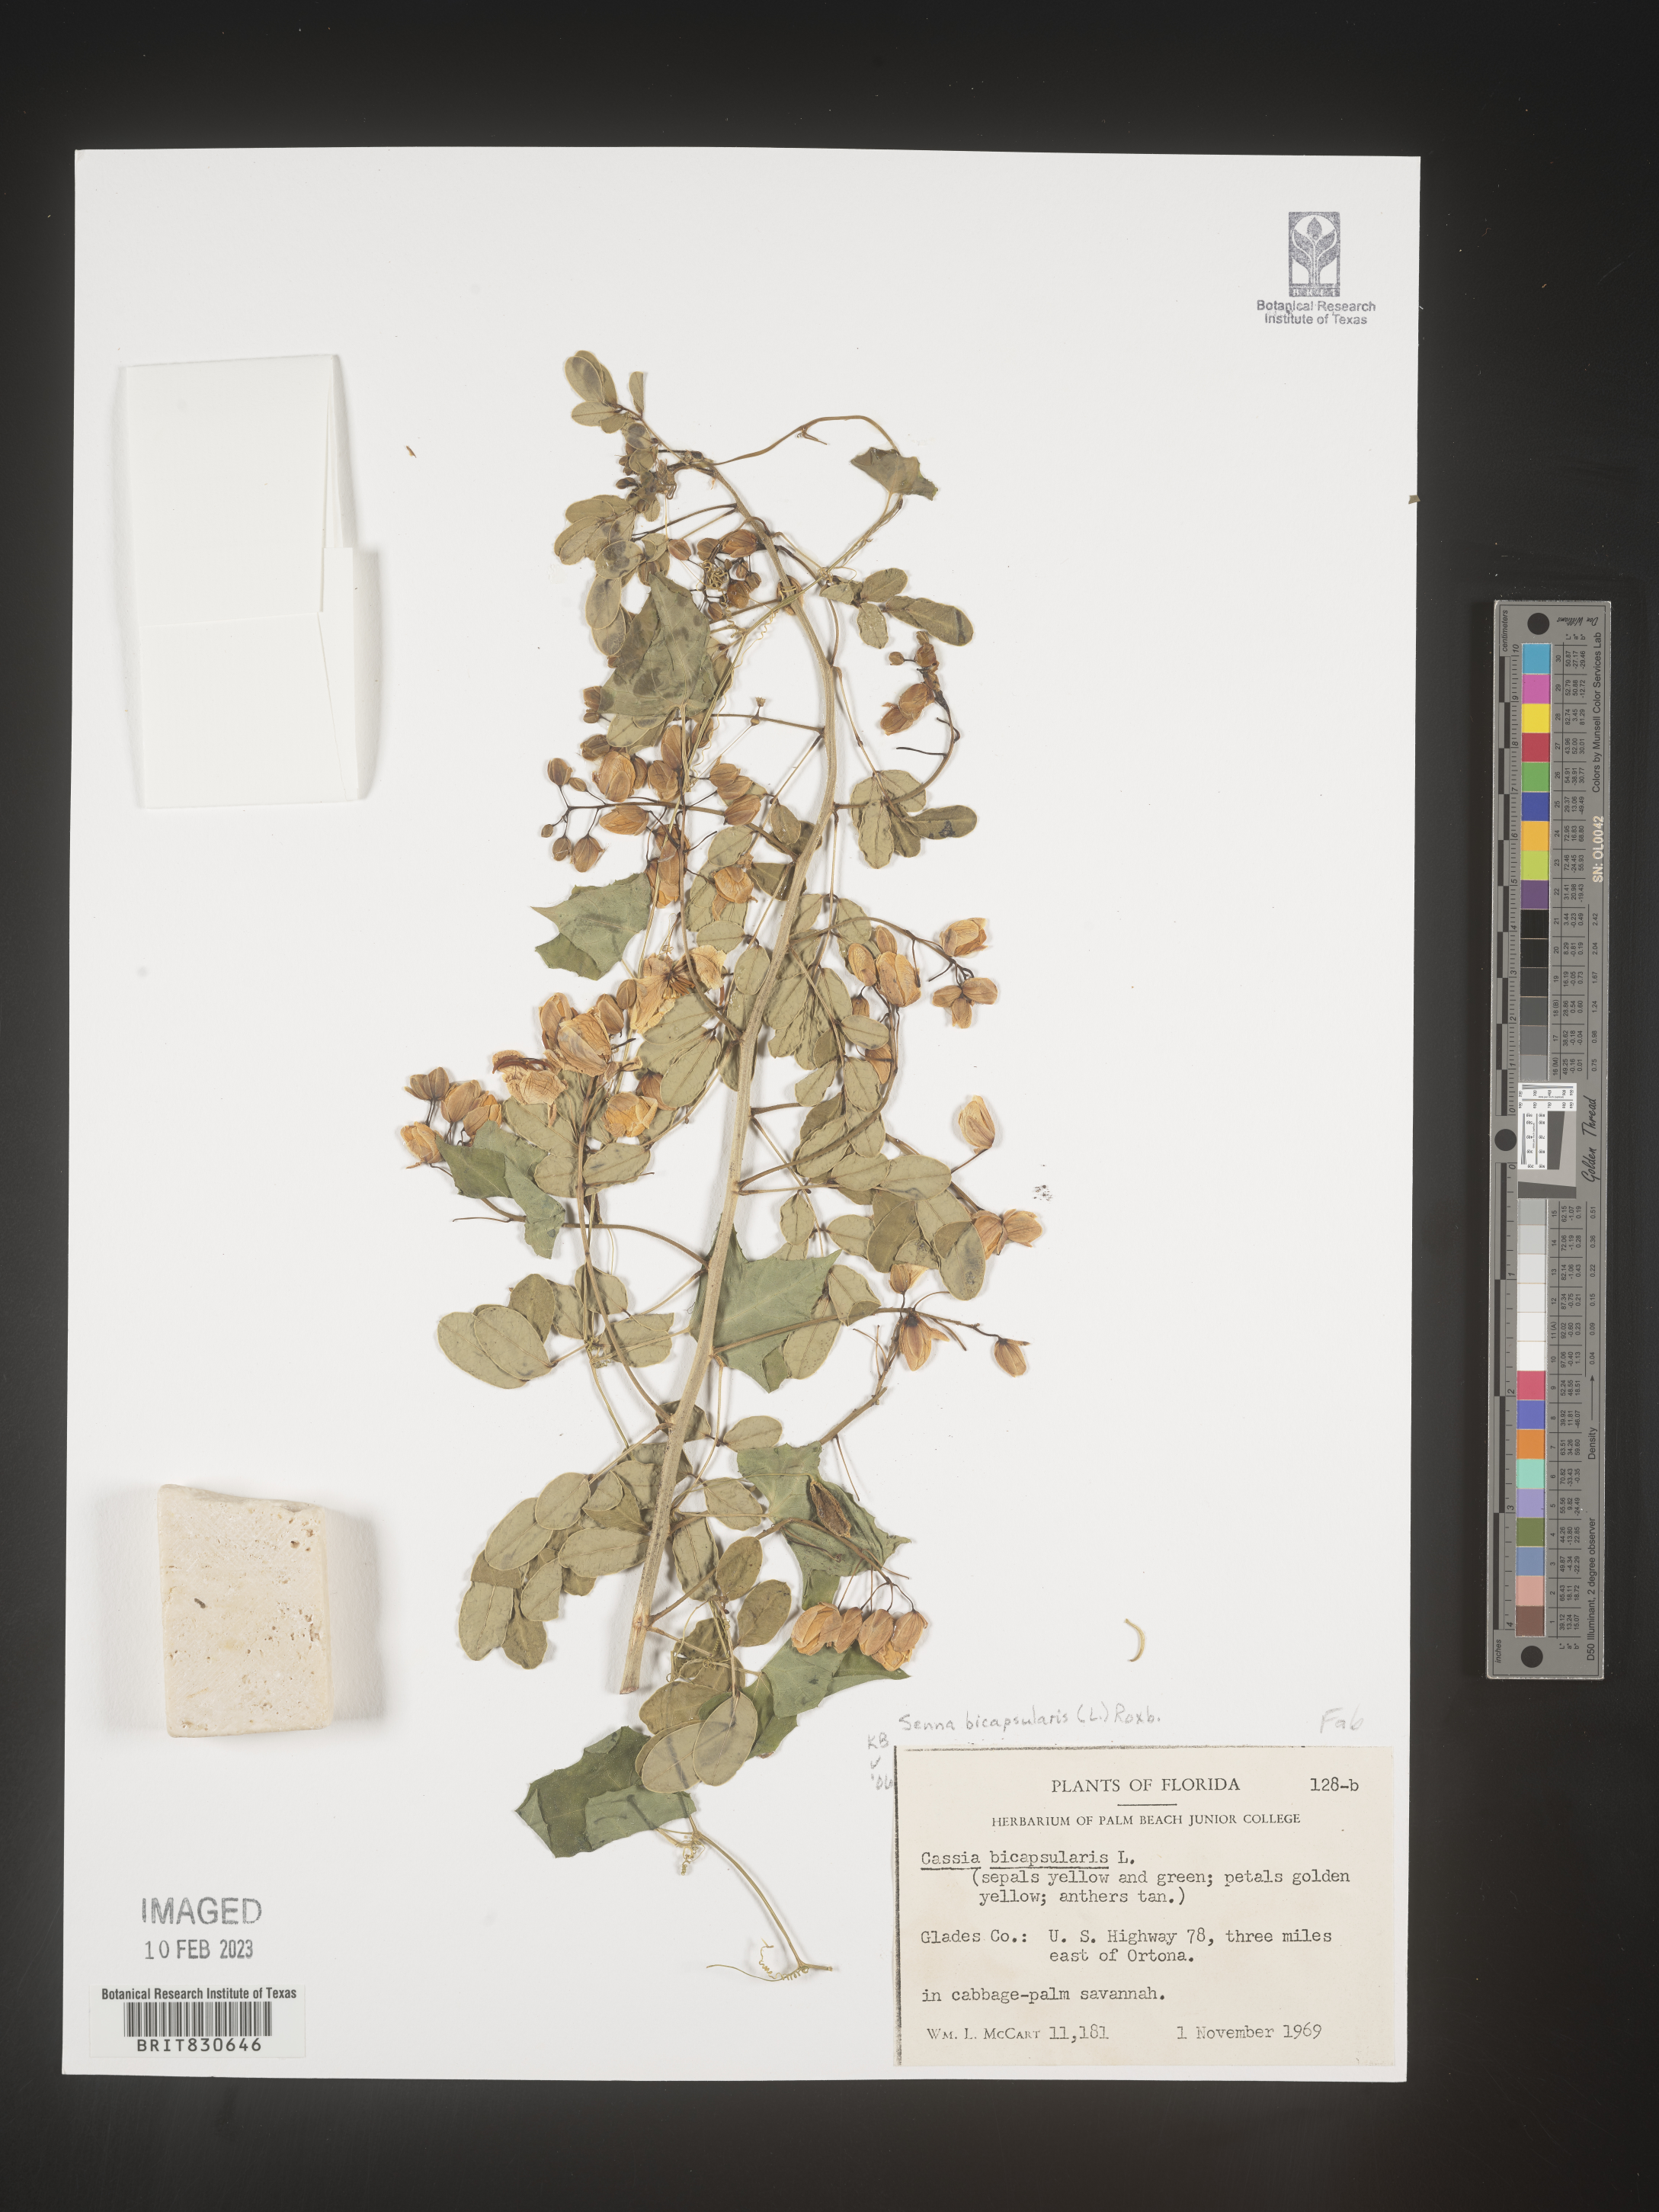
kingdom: Plantae
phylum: Tracheophyta
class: Magnoliopsida
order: Fabales
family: Fabaceae
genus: Senna
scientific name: Senna
